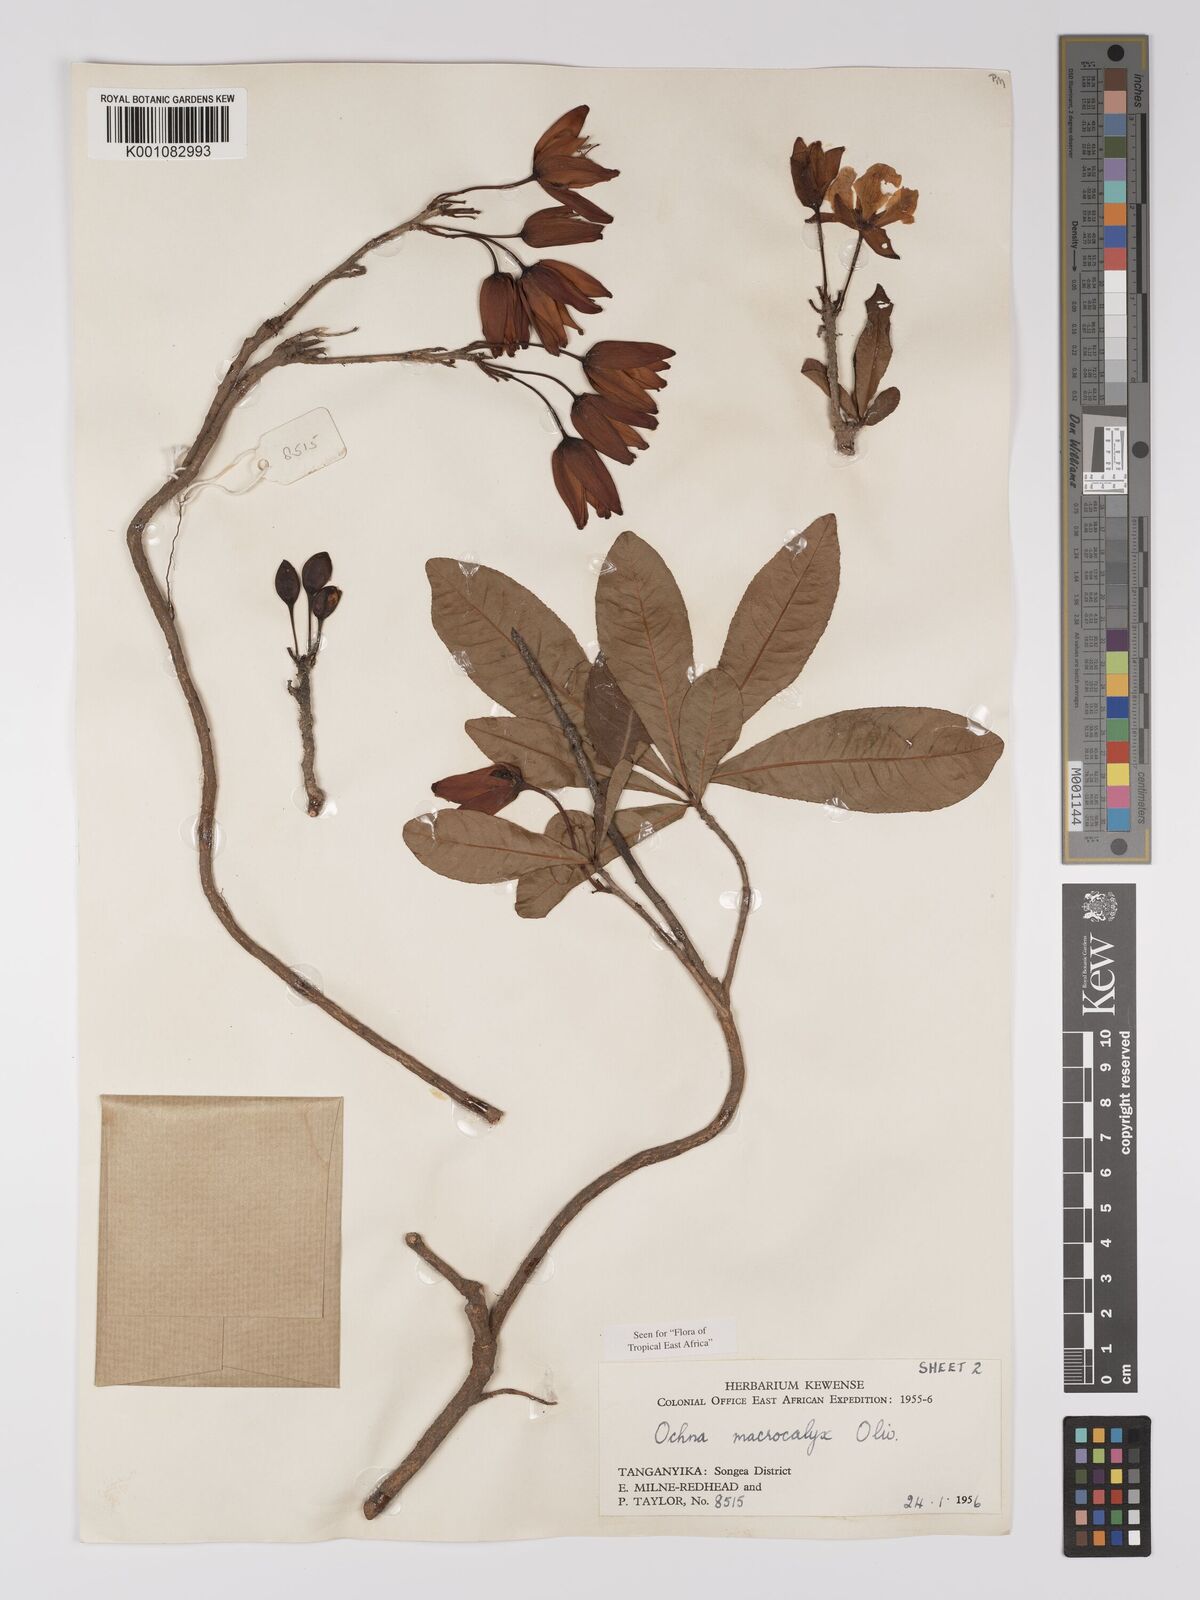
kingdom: Plantae
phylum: Tracheophyta
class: Magnoliopsida
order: Malpighiales
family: Ochnaceae
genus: Ochna
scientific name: Ochna macrocalyx
